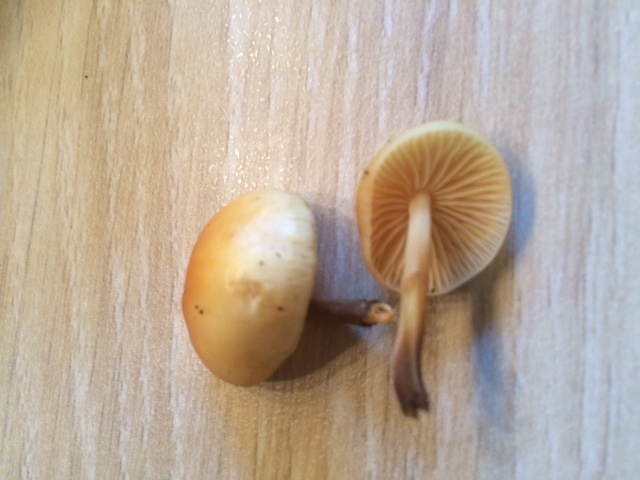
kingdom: Fungi
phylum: Basidiomycota
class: Agaricomycetes
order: Agaricales
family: Physalacriaceae
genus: Flammulina
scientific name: Flammulina elastica
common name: pile-fløjlsfod
